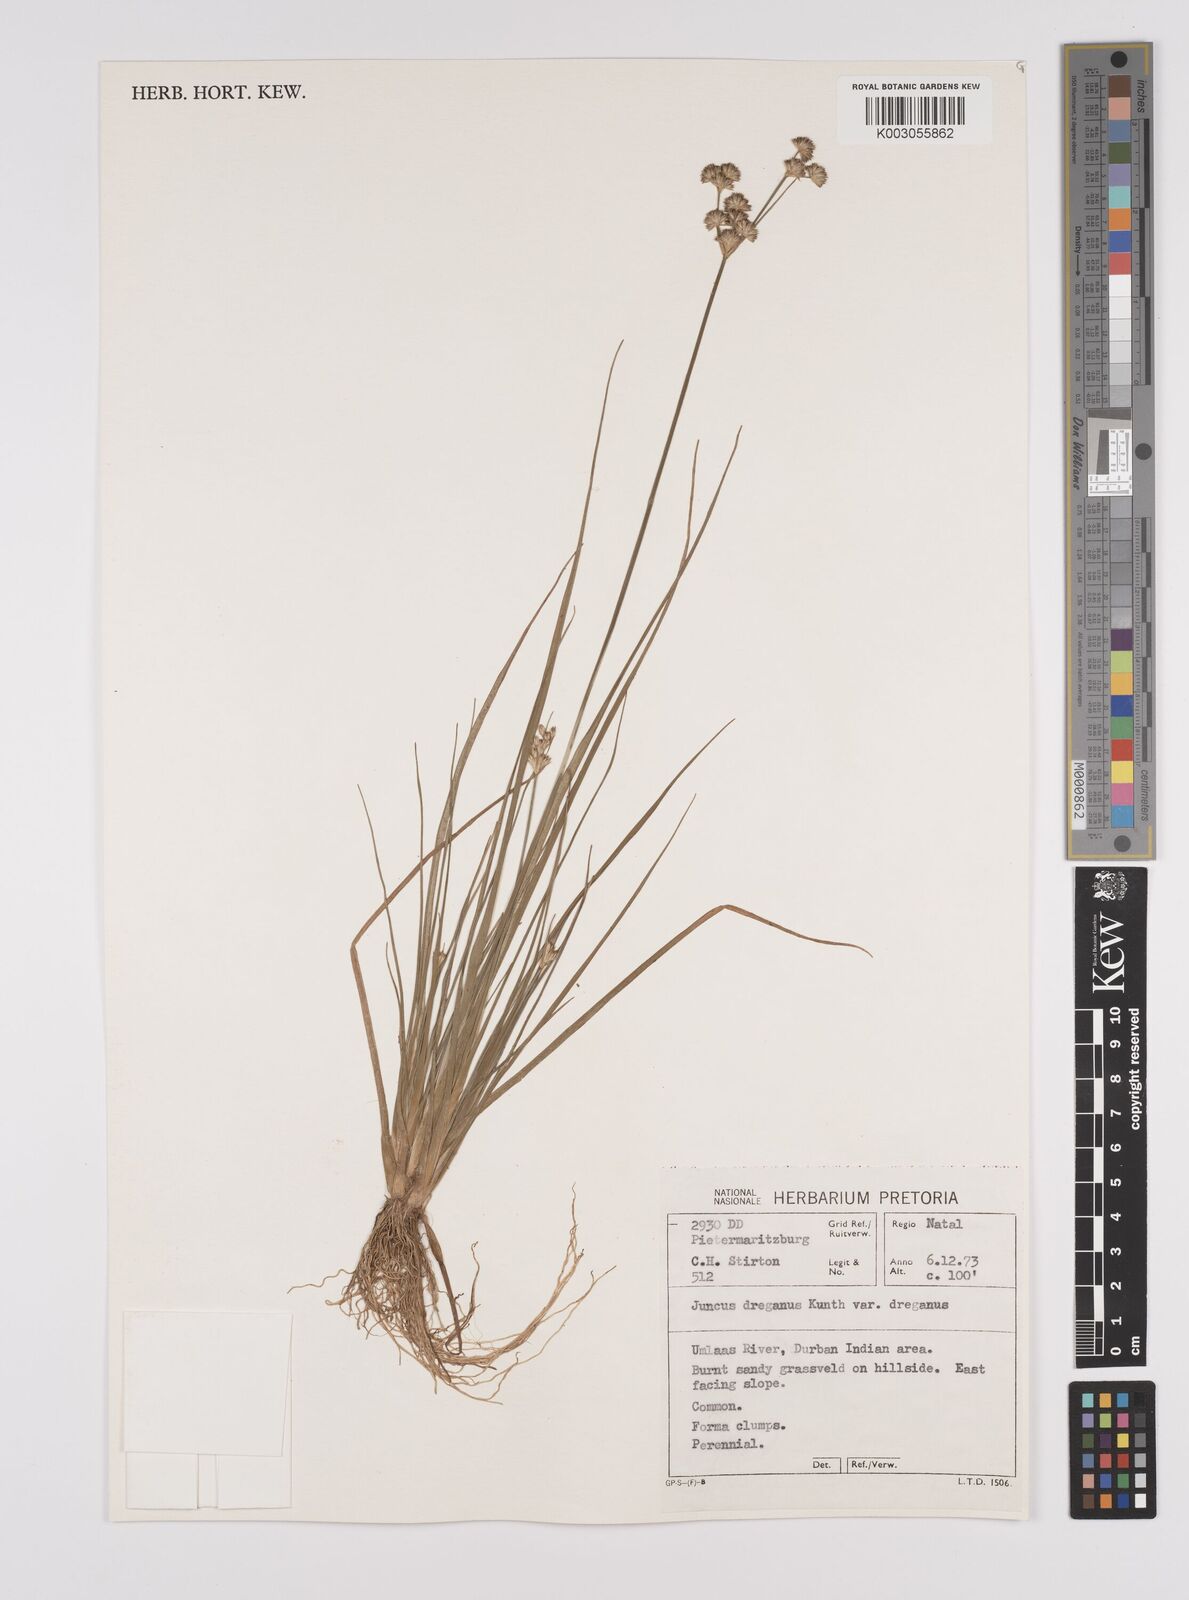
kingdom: Plantae
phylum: Tracheophyta
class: Liliopsida
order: Poales
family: Juncaceae
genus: Juncus
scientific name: Juncus dregeanus
